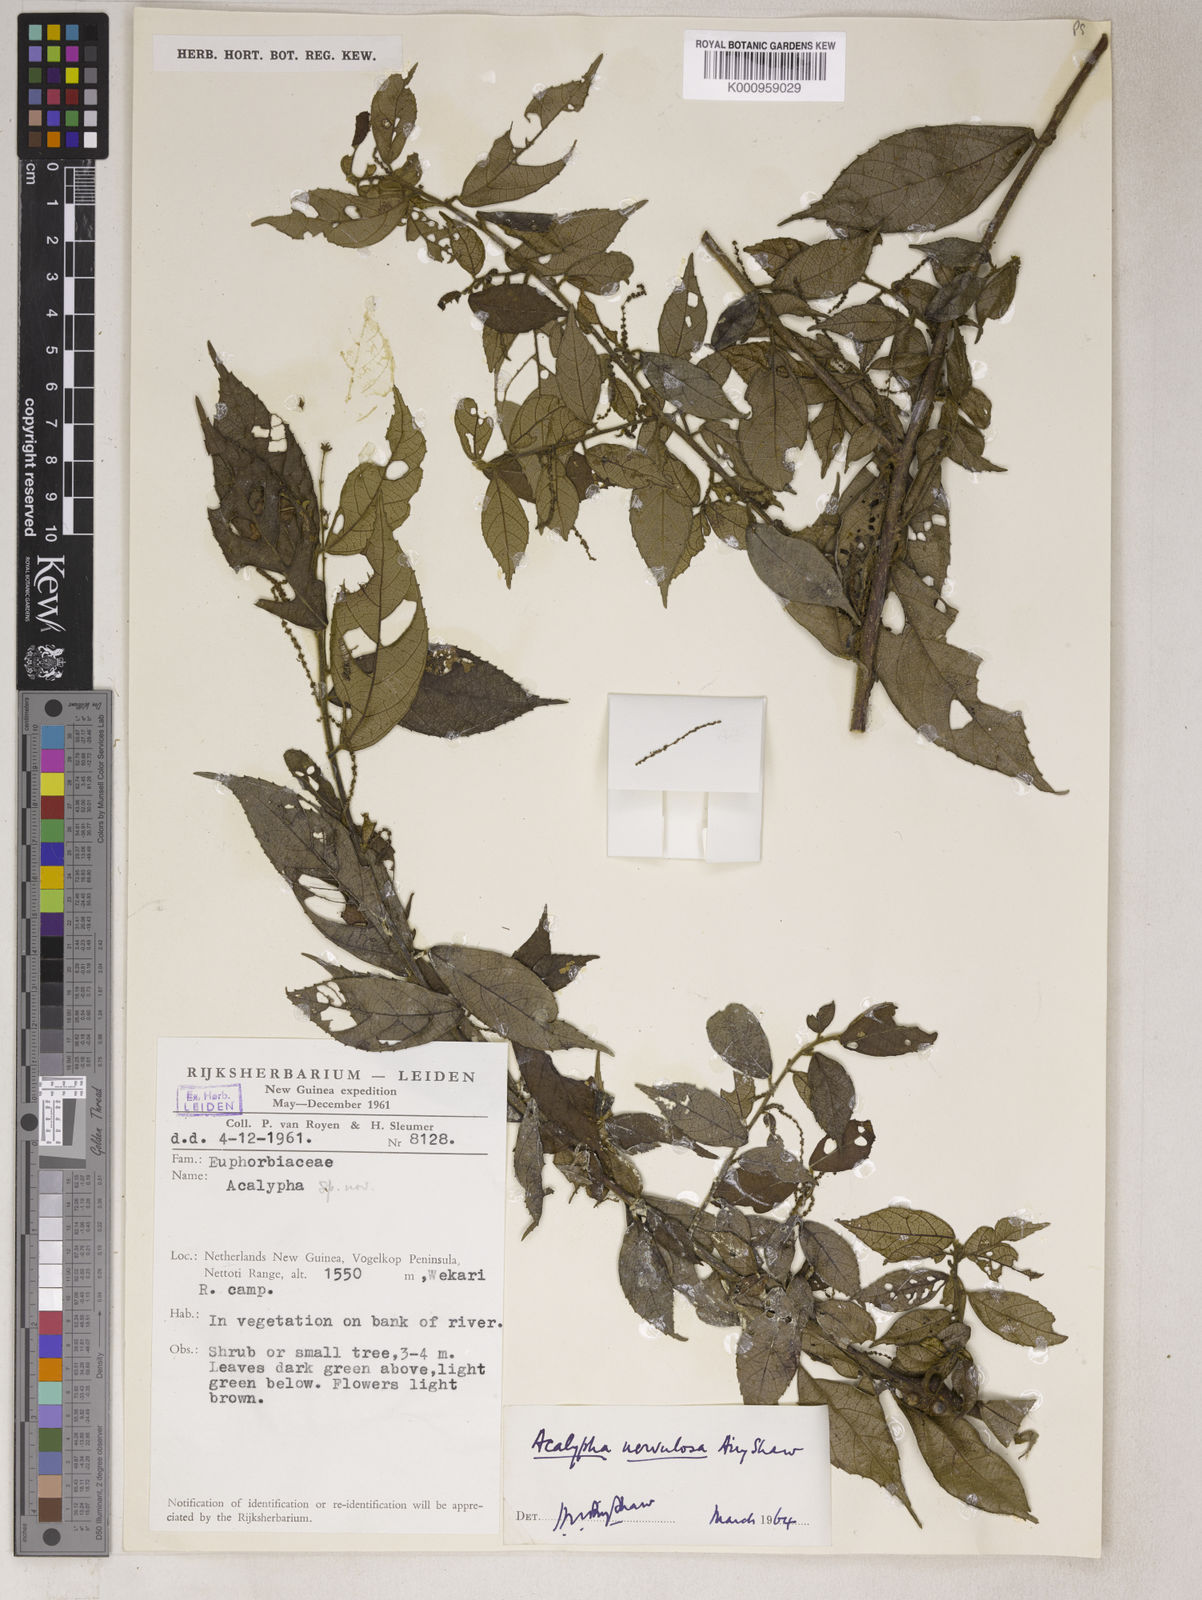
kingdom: Plantae
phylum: Tracheophyta
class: Magnoliopsida
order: Malpighiales
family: Euphorbiaceae
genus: Acalypha
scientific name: Acalypha nervulosa
